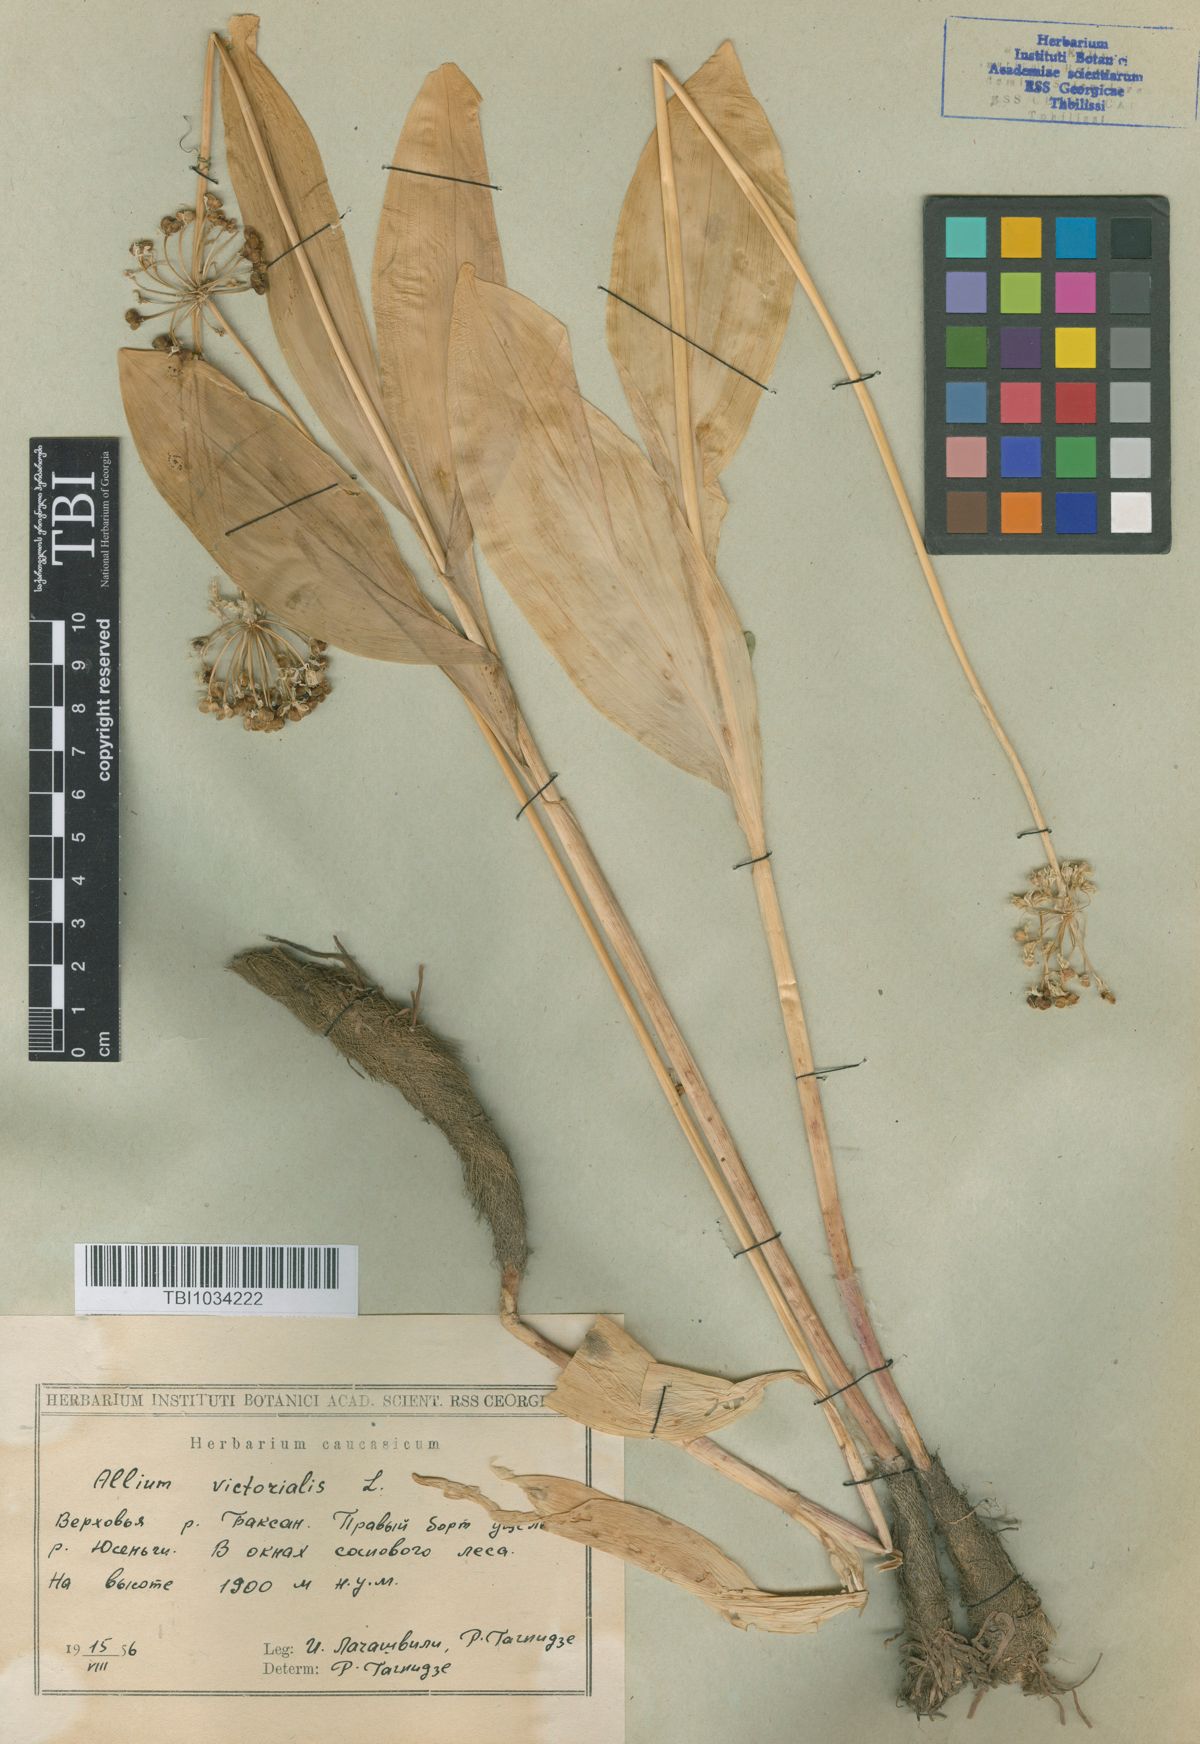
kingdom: Plantae
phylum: Tracheophyta
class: Liliopsida
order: Asparagales
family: Amaryllidaceae
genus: Allium
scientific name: Allium victorialis
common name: Alpine leek
